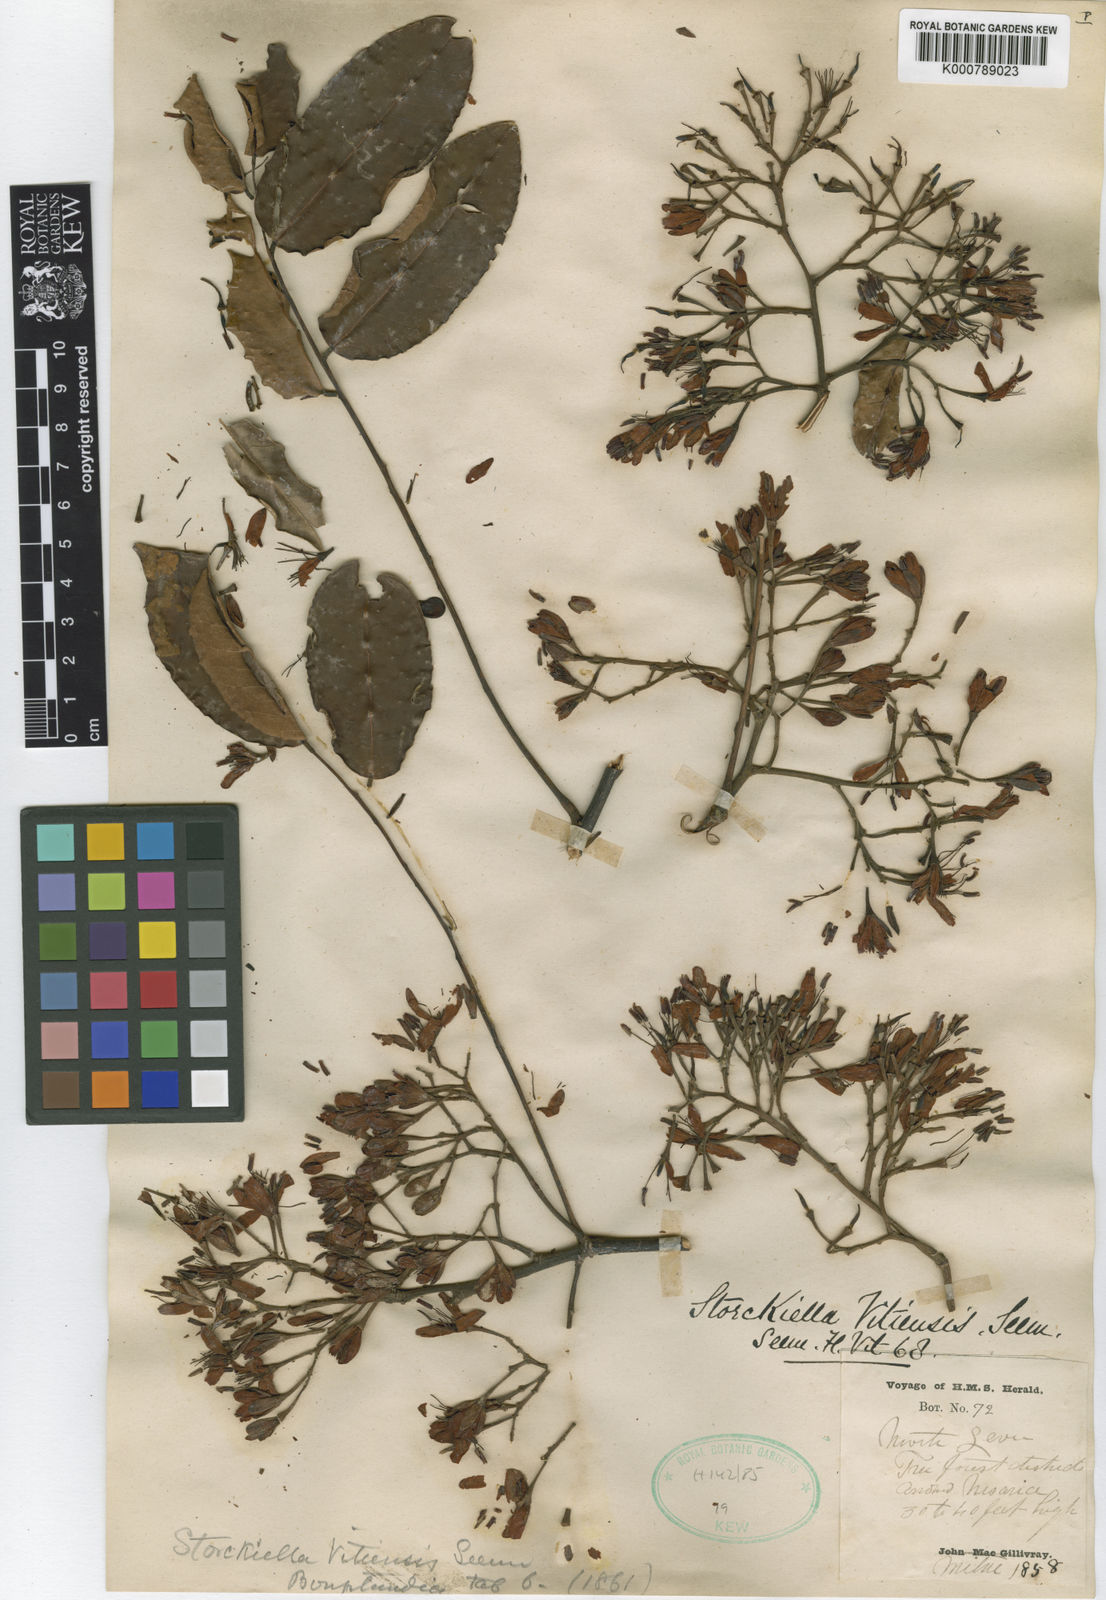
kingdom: Plantae
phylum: Tracheophyta
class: Magnoliopsida
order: Fabales
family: Fabaceae
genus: Storckiella
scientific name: Storckiella vitiensis
